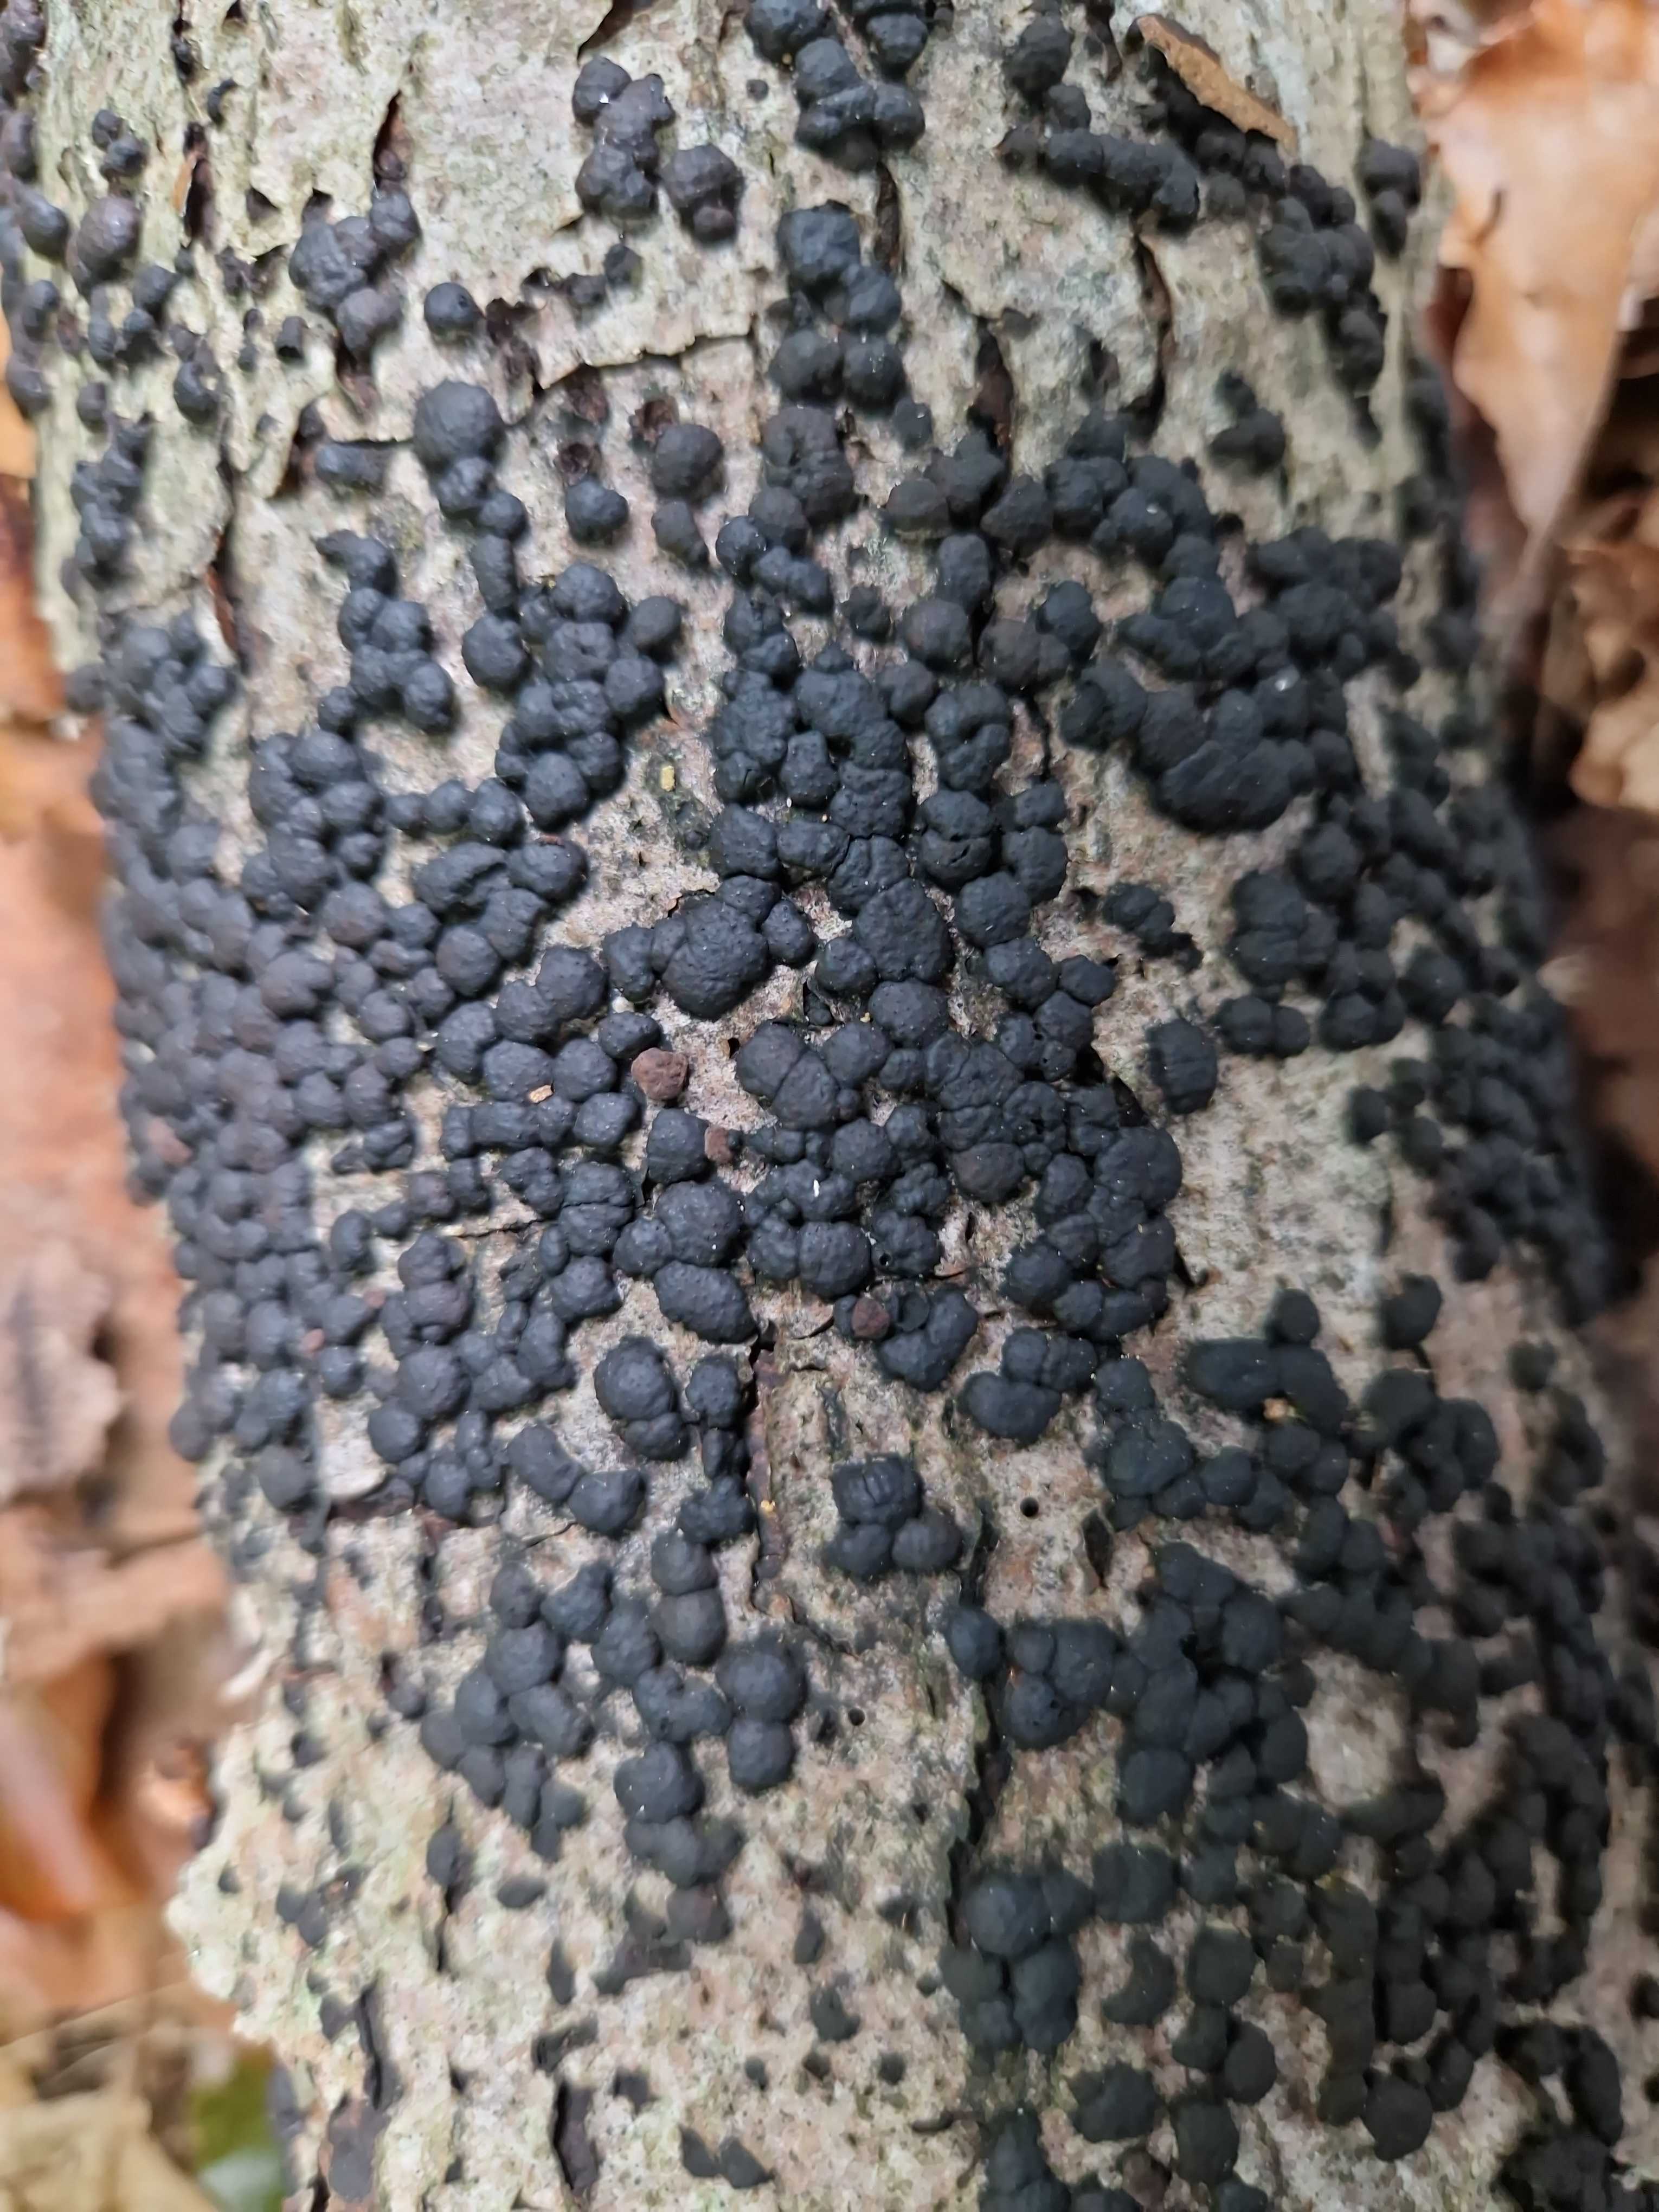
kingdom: Fungi
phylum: Ascomycota
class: Sordariomycetes
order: Xylariales
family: Hypoxylaceae
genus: Jackrogersella
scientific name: Jackrogersella cohaerens
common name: sammenflydende kulbær
